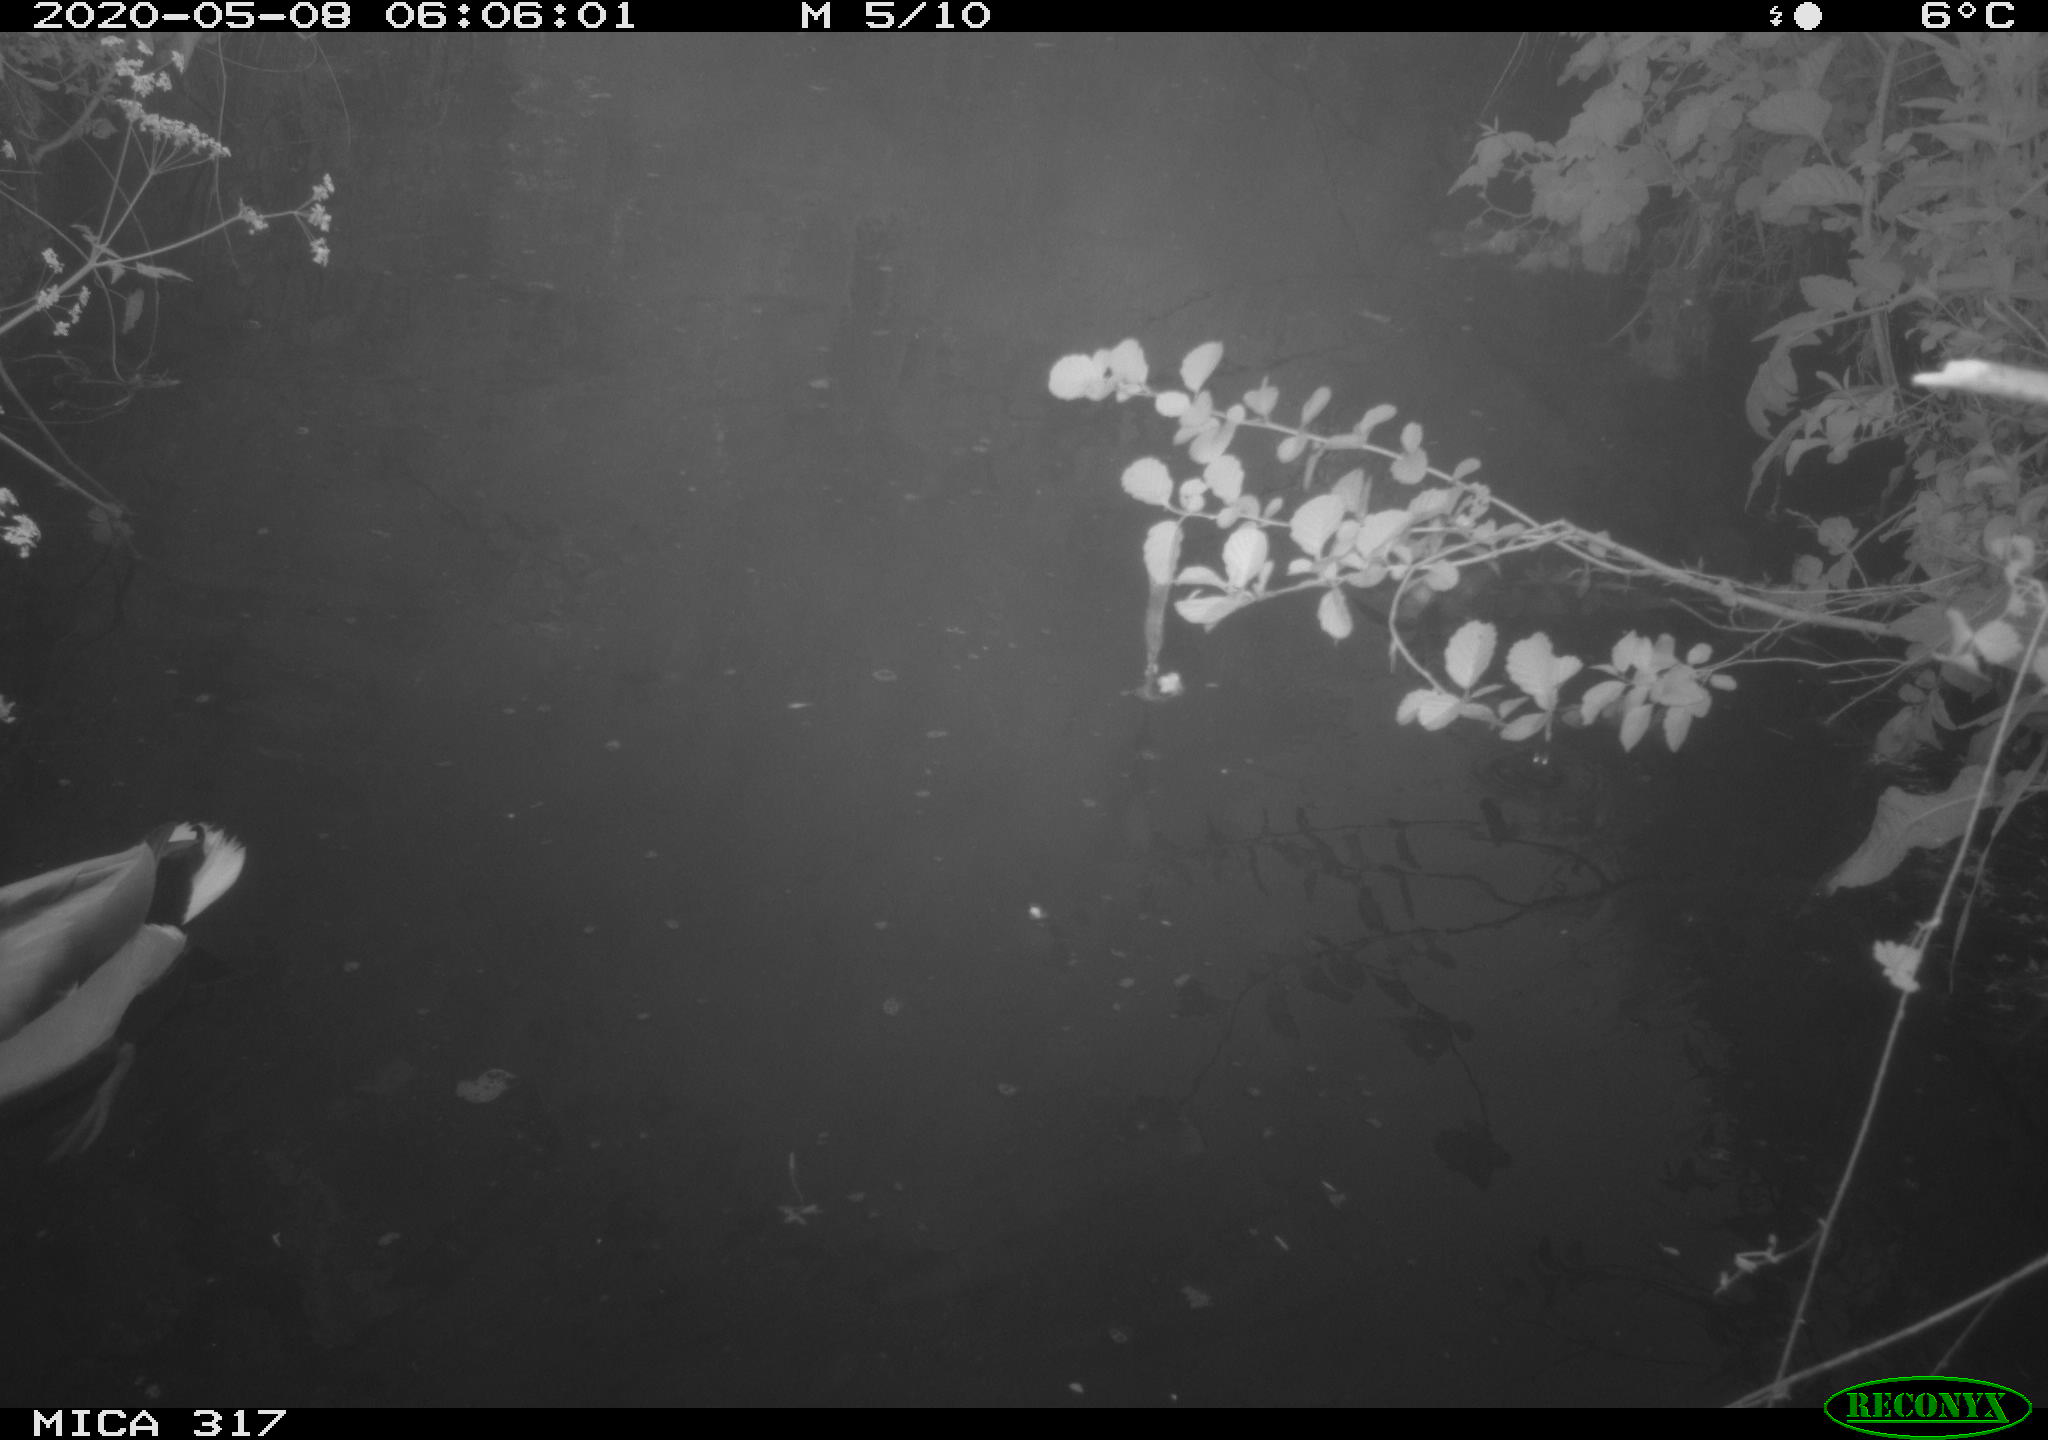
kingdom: Animalia
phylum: Chordata
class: Aves
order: Anseriformes
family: Anatidae
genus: Anas
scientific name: Anas platyrhynchos
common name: Mallard
